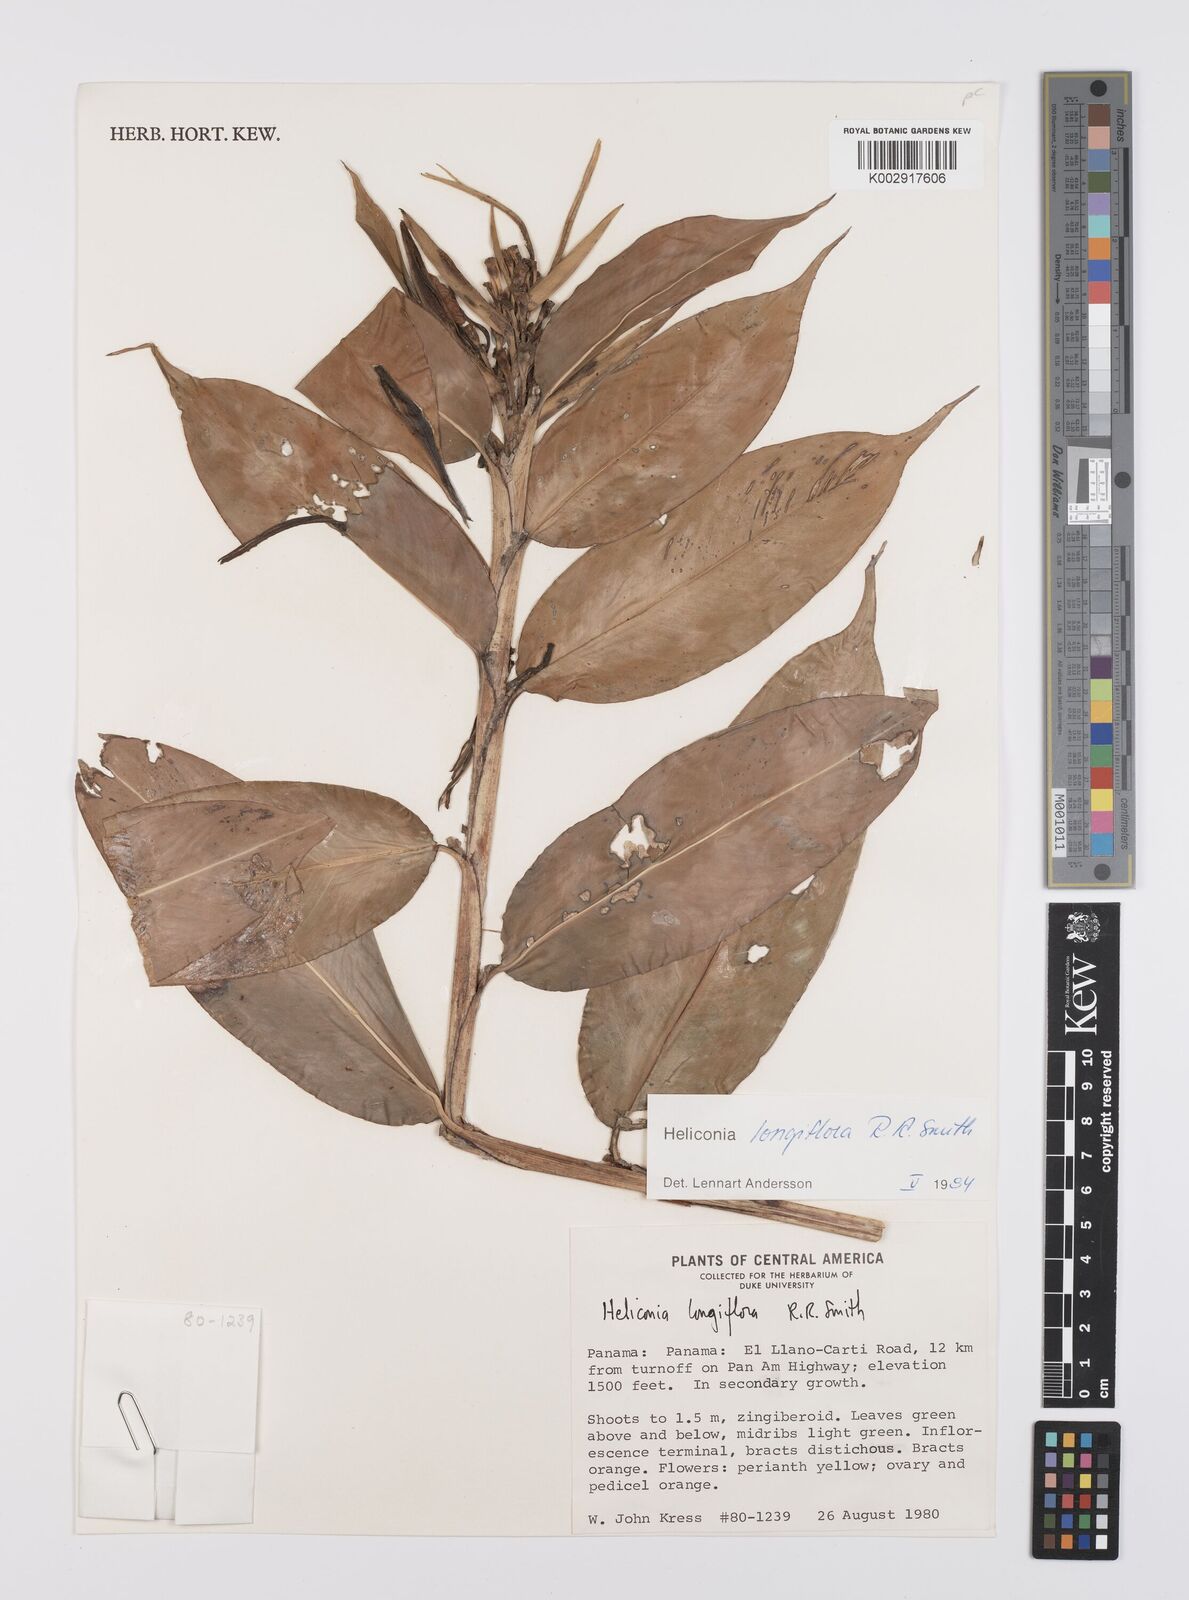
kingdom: Plantae
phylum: Tracheophyta
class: Liliopsida
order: Zingiberales
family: Heliconiaceae
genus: Heliconia
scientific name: Heliconia longiflora
